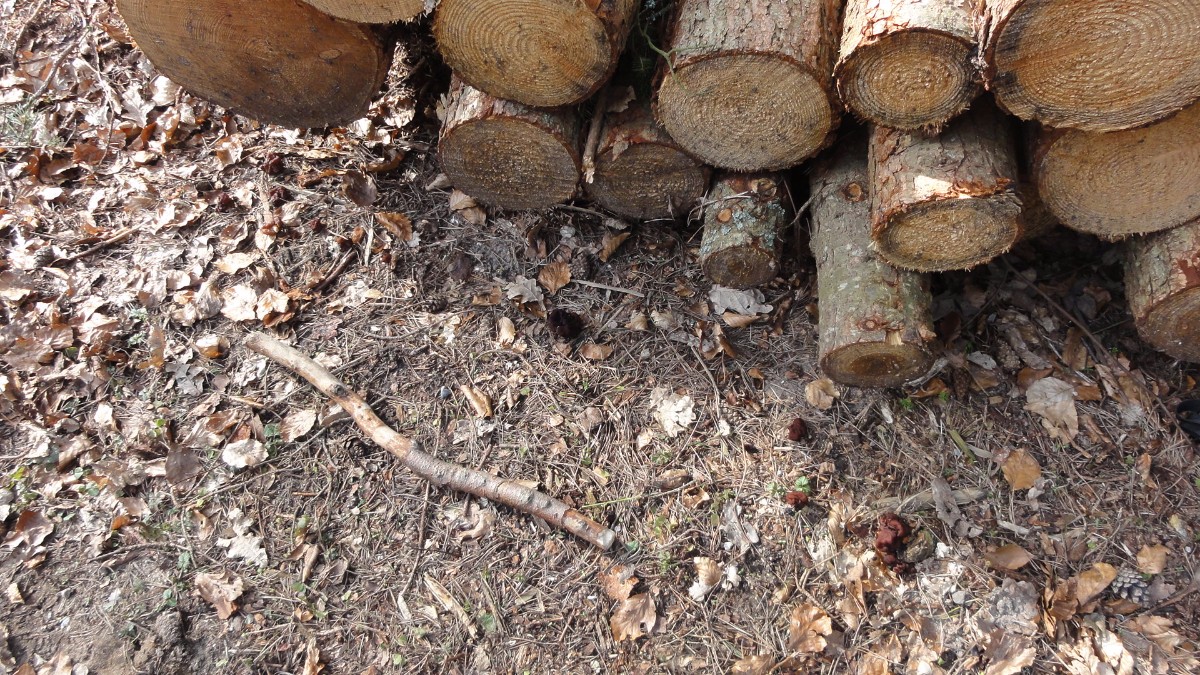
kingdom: Fungi
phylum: Ascomycota
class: Pezizomycetes
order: Pezizales
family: Discinaceae
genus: Gyromitra
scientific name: Gyromitra esculenta
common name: ægte stenmorkel
